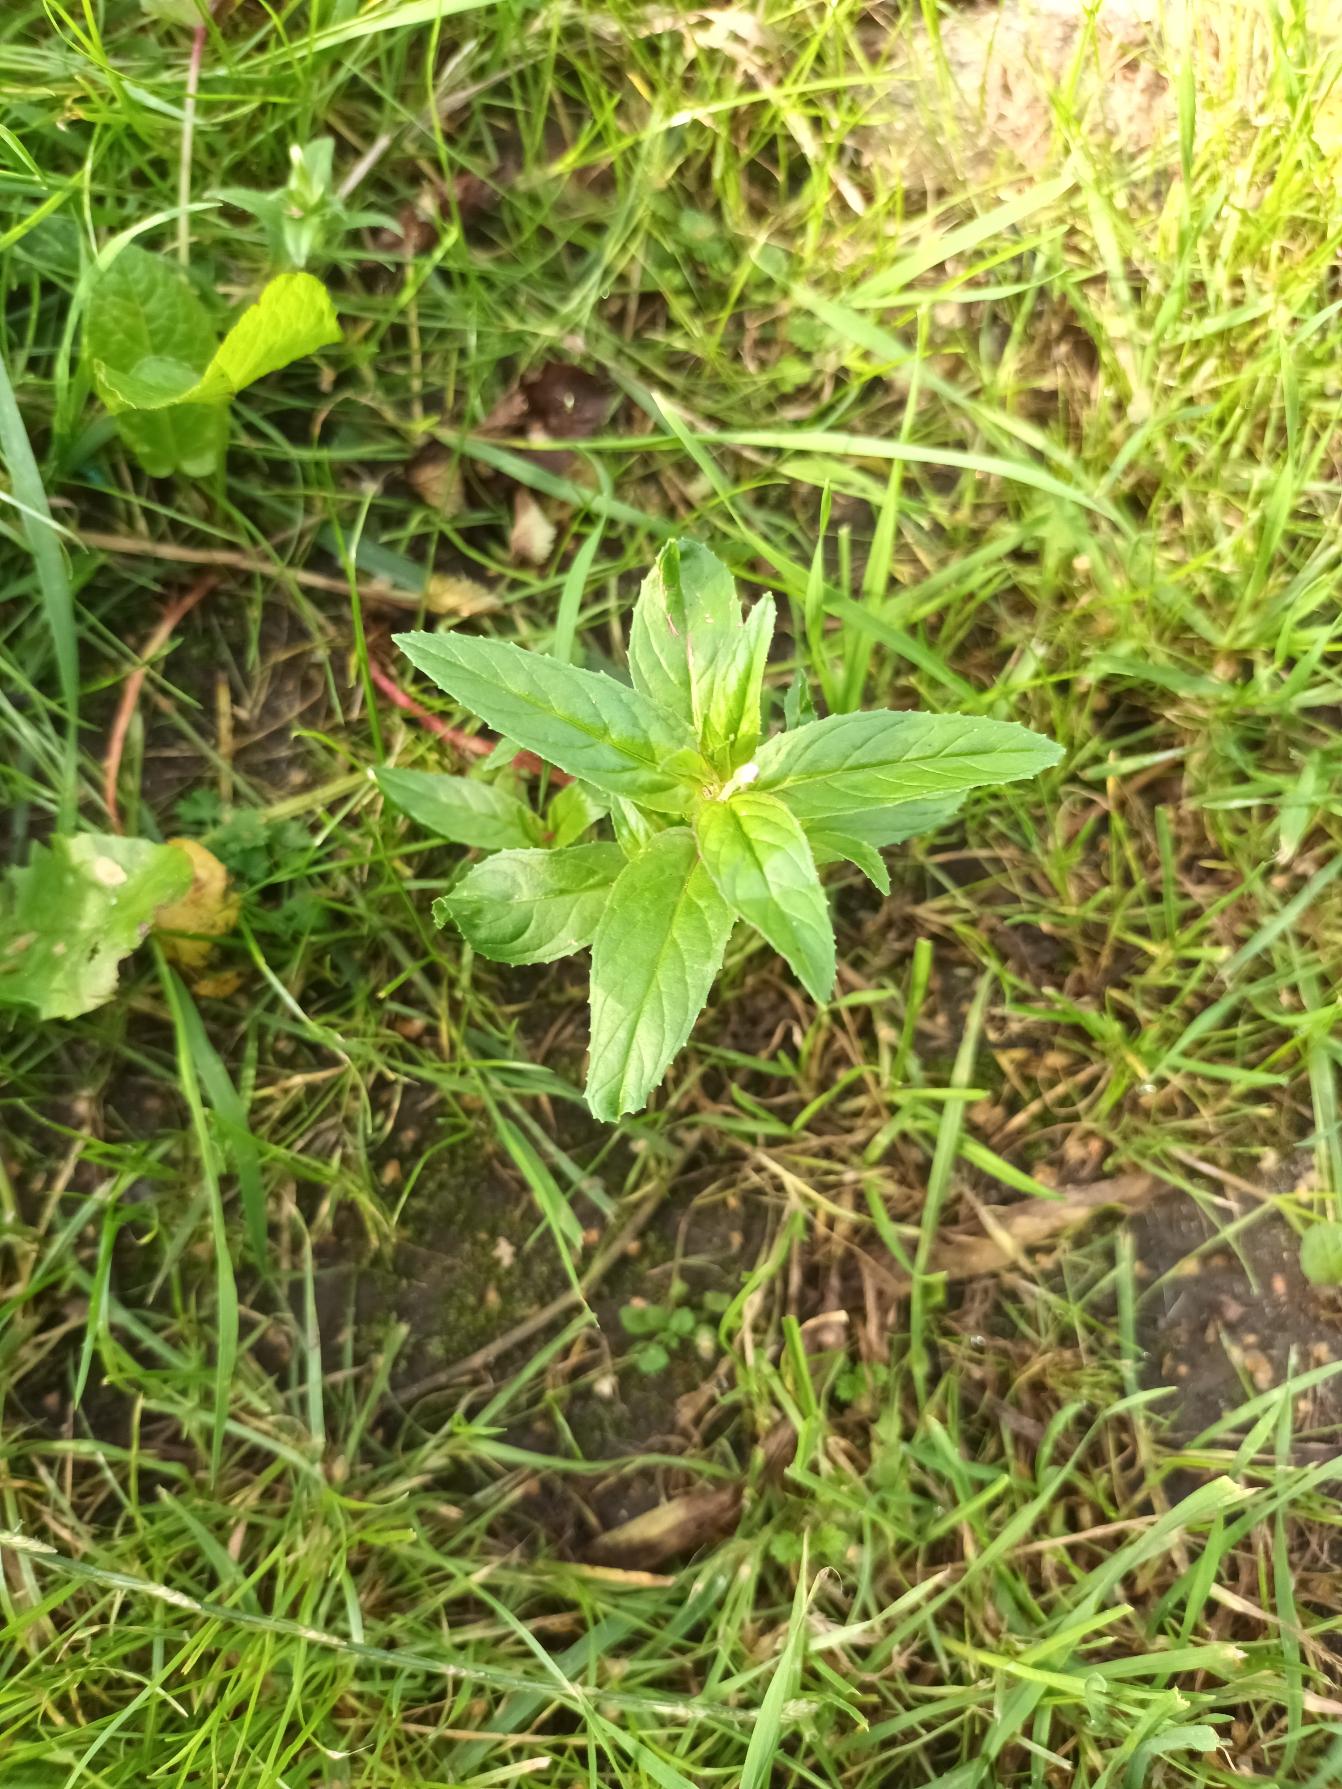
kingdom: Plantae
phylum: Tracheophyta
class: Magnoliopsida
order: Myrtales
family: Onagraceae
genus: Epilobium
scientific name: Epilobium ciliatum
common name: Alaska-dueurt
